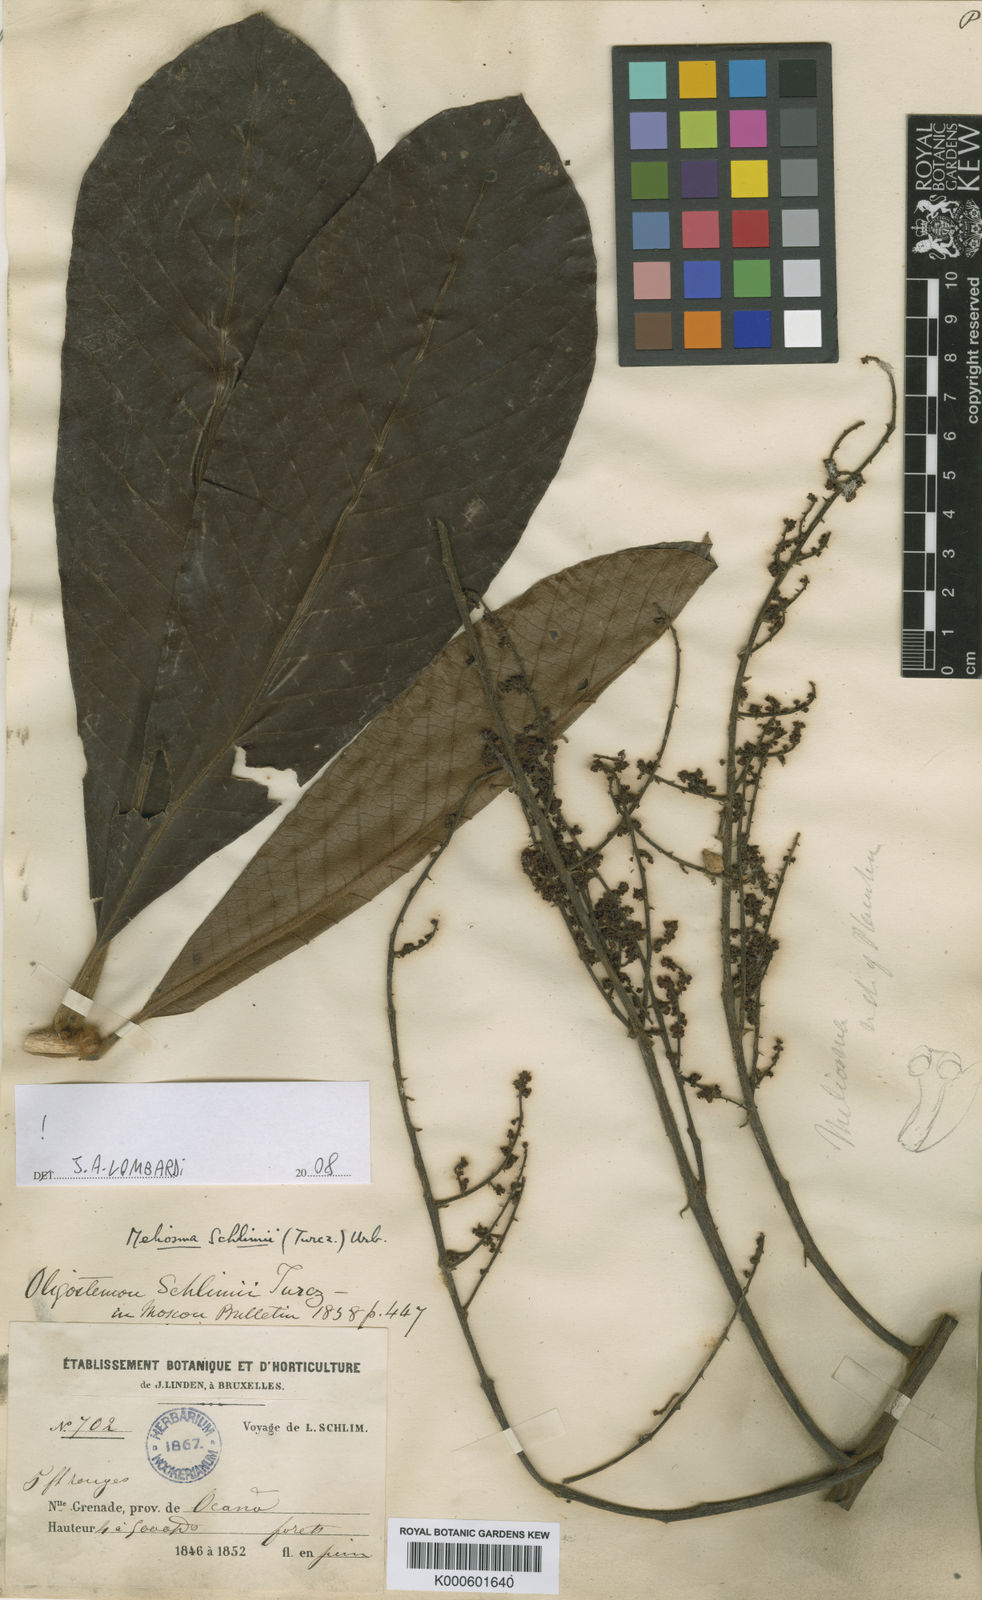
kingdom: Plantae
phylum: Tracheophyta
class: Magnoliopsida
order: Proteales
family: Sabiaceae
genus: Meliosma
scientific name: Meliosma schlimii
